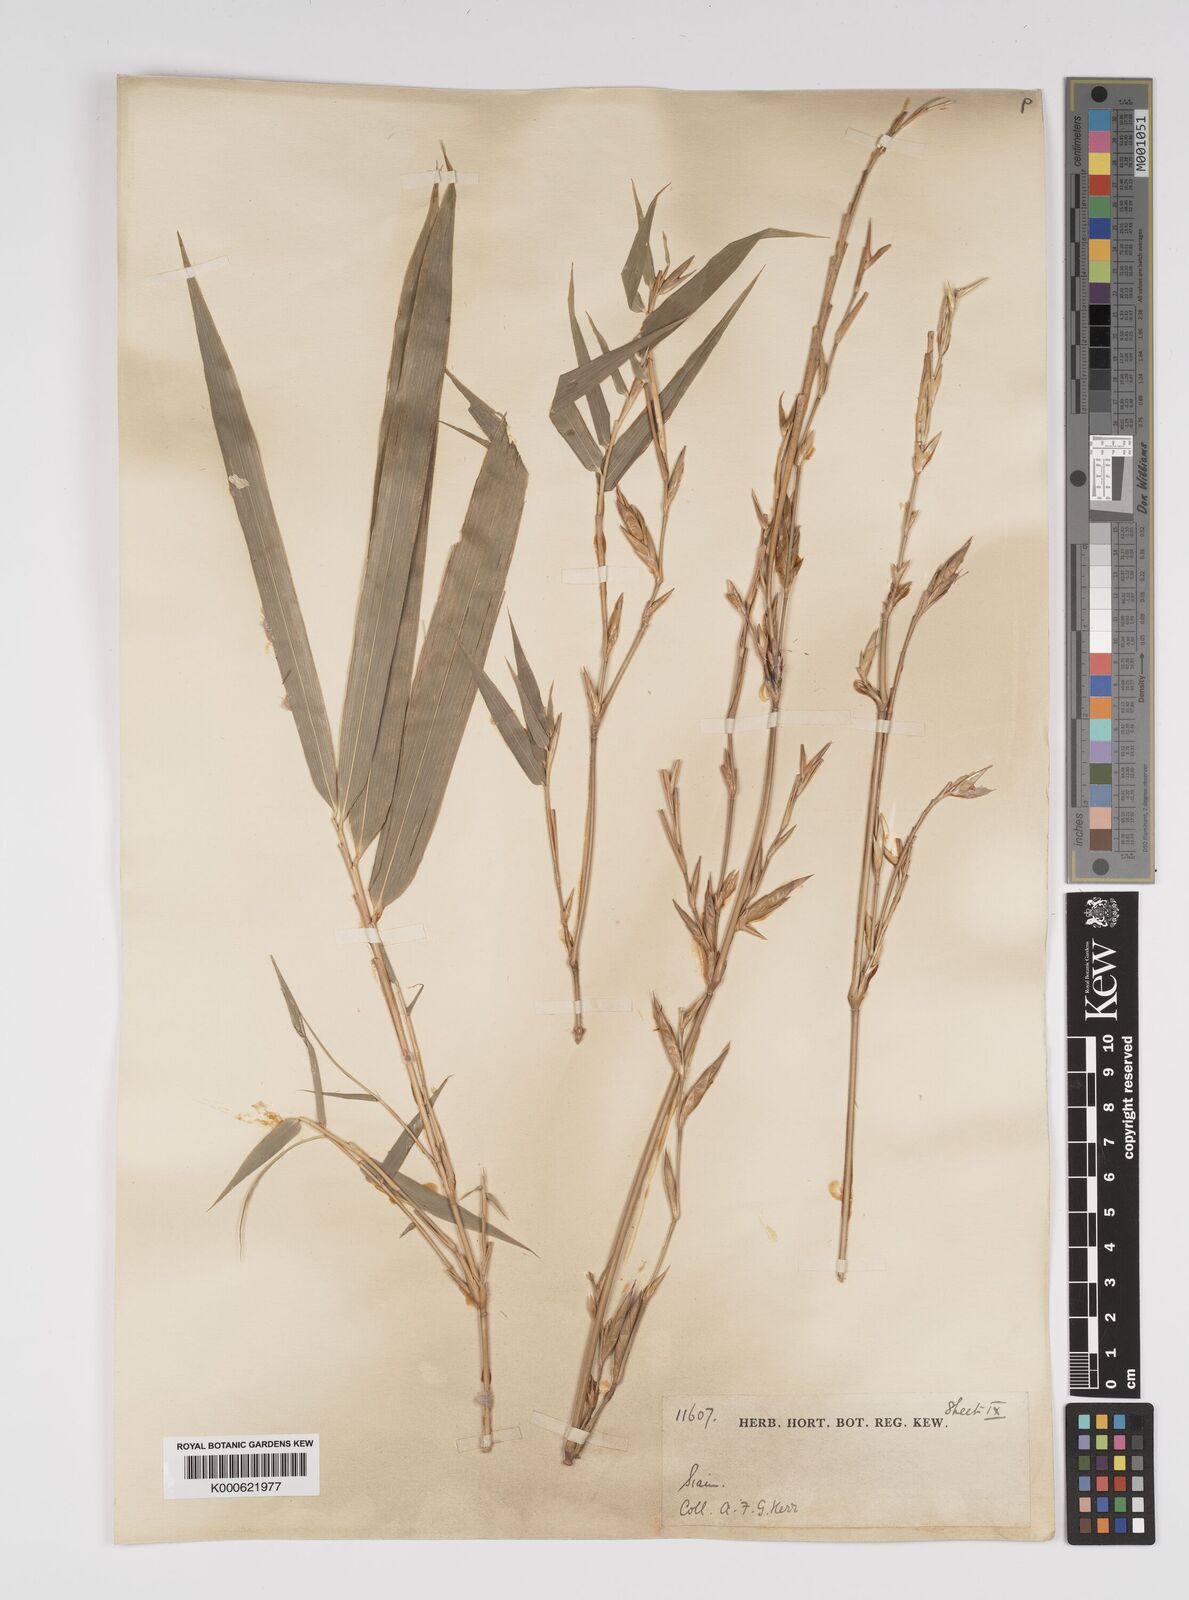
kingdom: Plantae
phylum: Tracheophyta
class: Liliopsida
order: Poales
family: Poaceae
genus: Bambusa
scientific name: Bambusa
